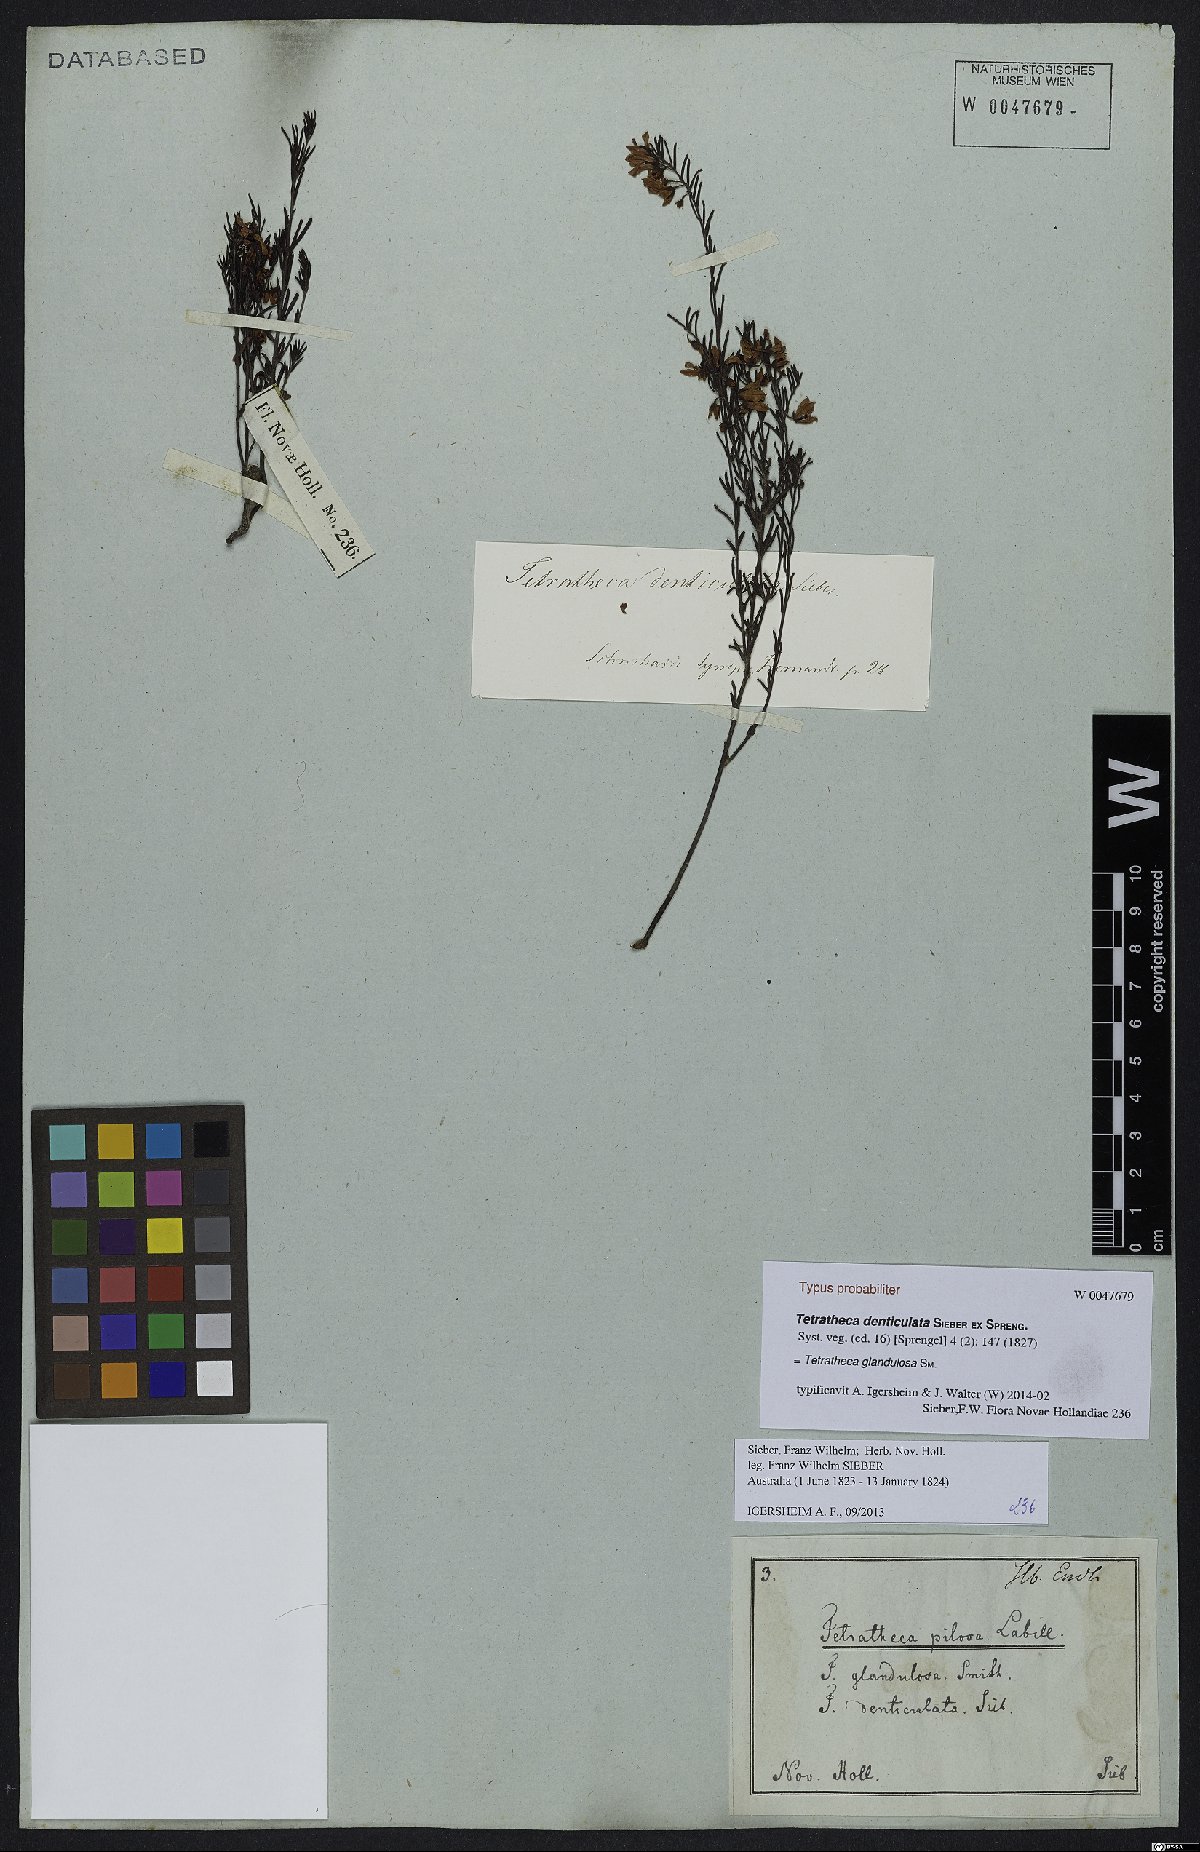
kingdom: Plantae
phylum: Tracheophyta
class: Magnoliopsida
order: Oxalidales
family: Elaeocarpaceae
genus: Tetratheca
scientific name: Tetratheca glandulosa
